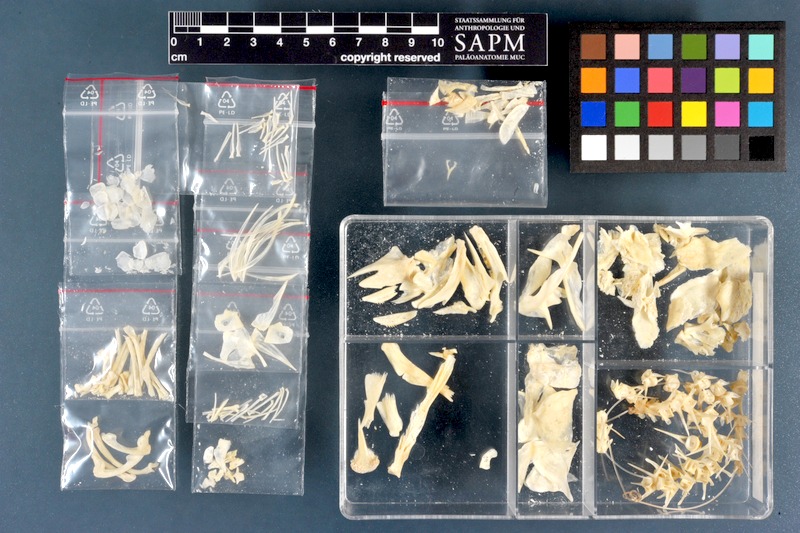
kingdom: Animalia
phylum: Chordata
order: Perciformes
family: Channidae
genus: Parachanna
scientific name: Parachanna obscura
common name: Snake-head
